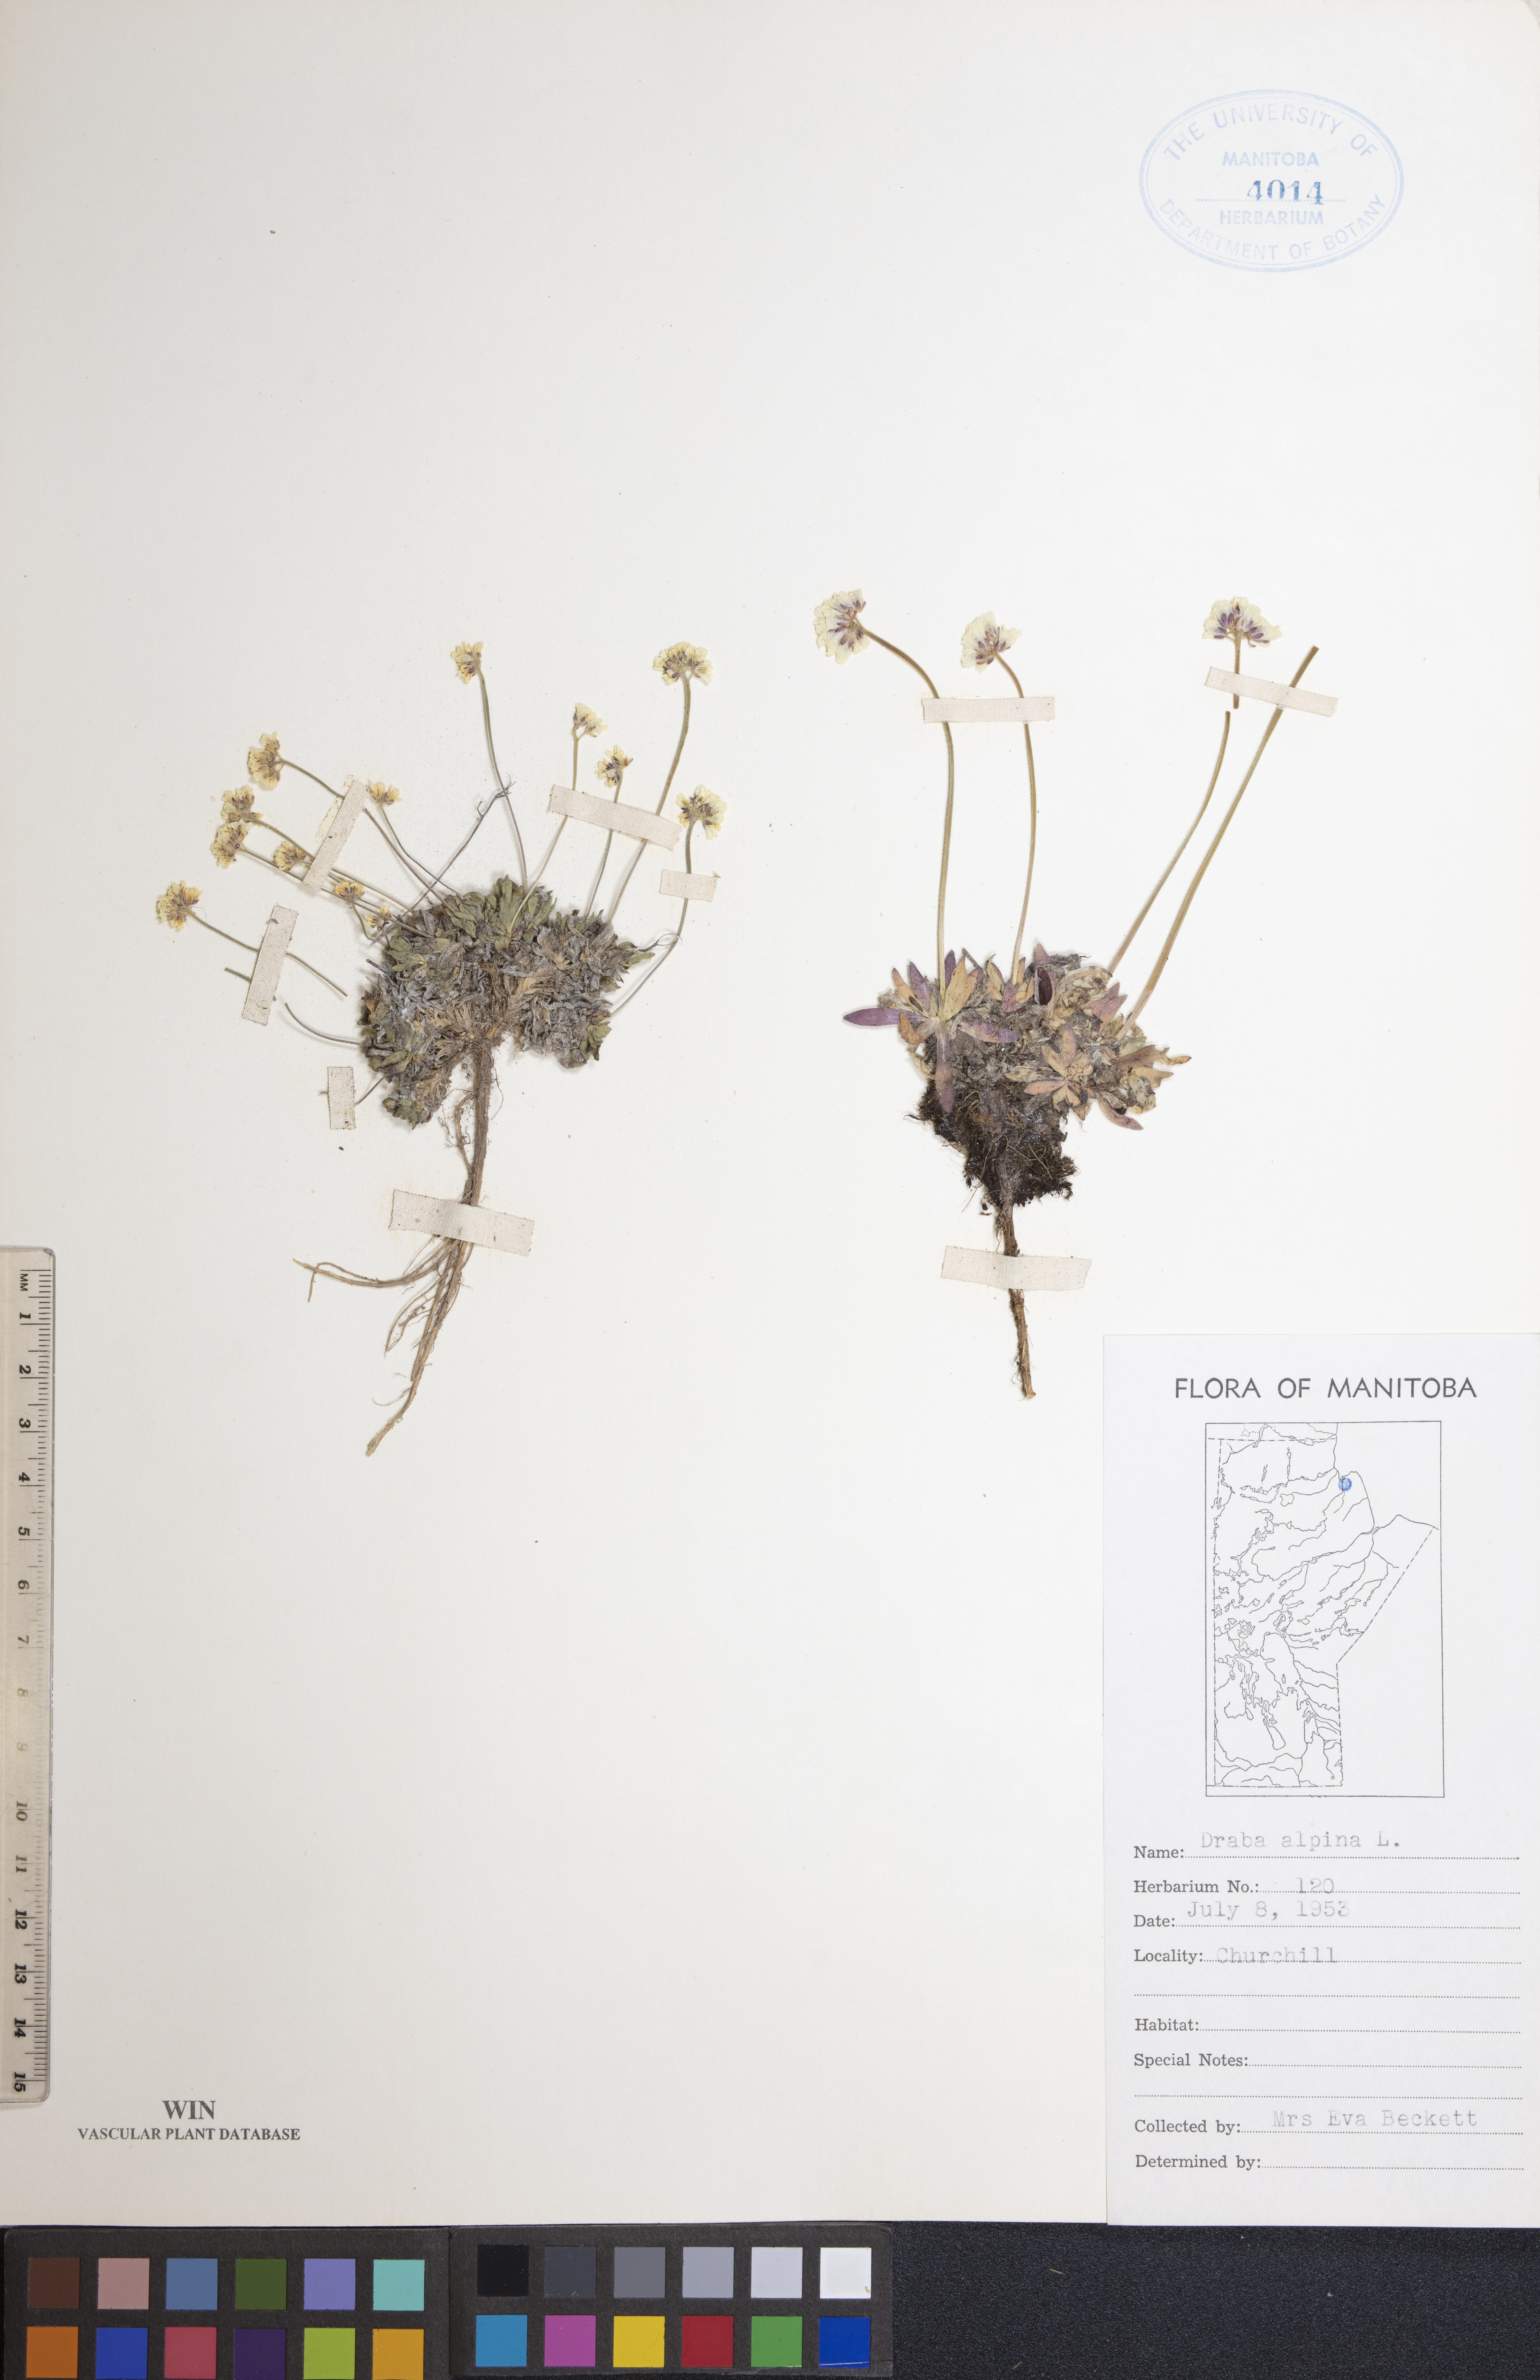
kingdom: Plantae
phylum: Tracheophyta
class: Magnoliopsida
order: Brassicales
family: Brassicaceae
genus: Draba
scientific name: Draba alpina
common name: Alpine draba
